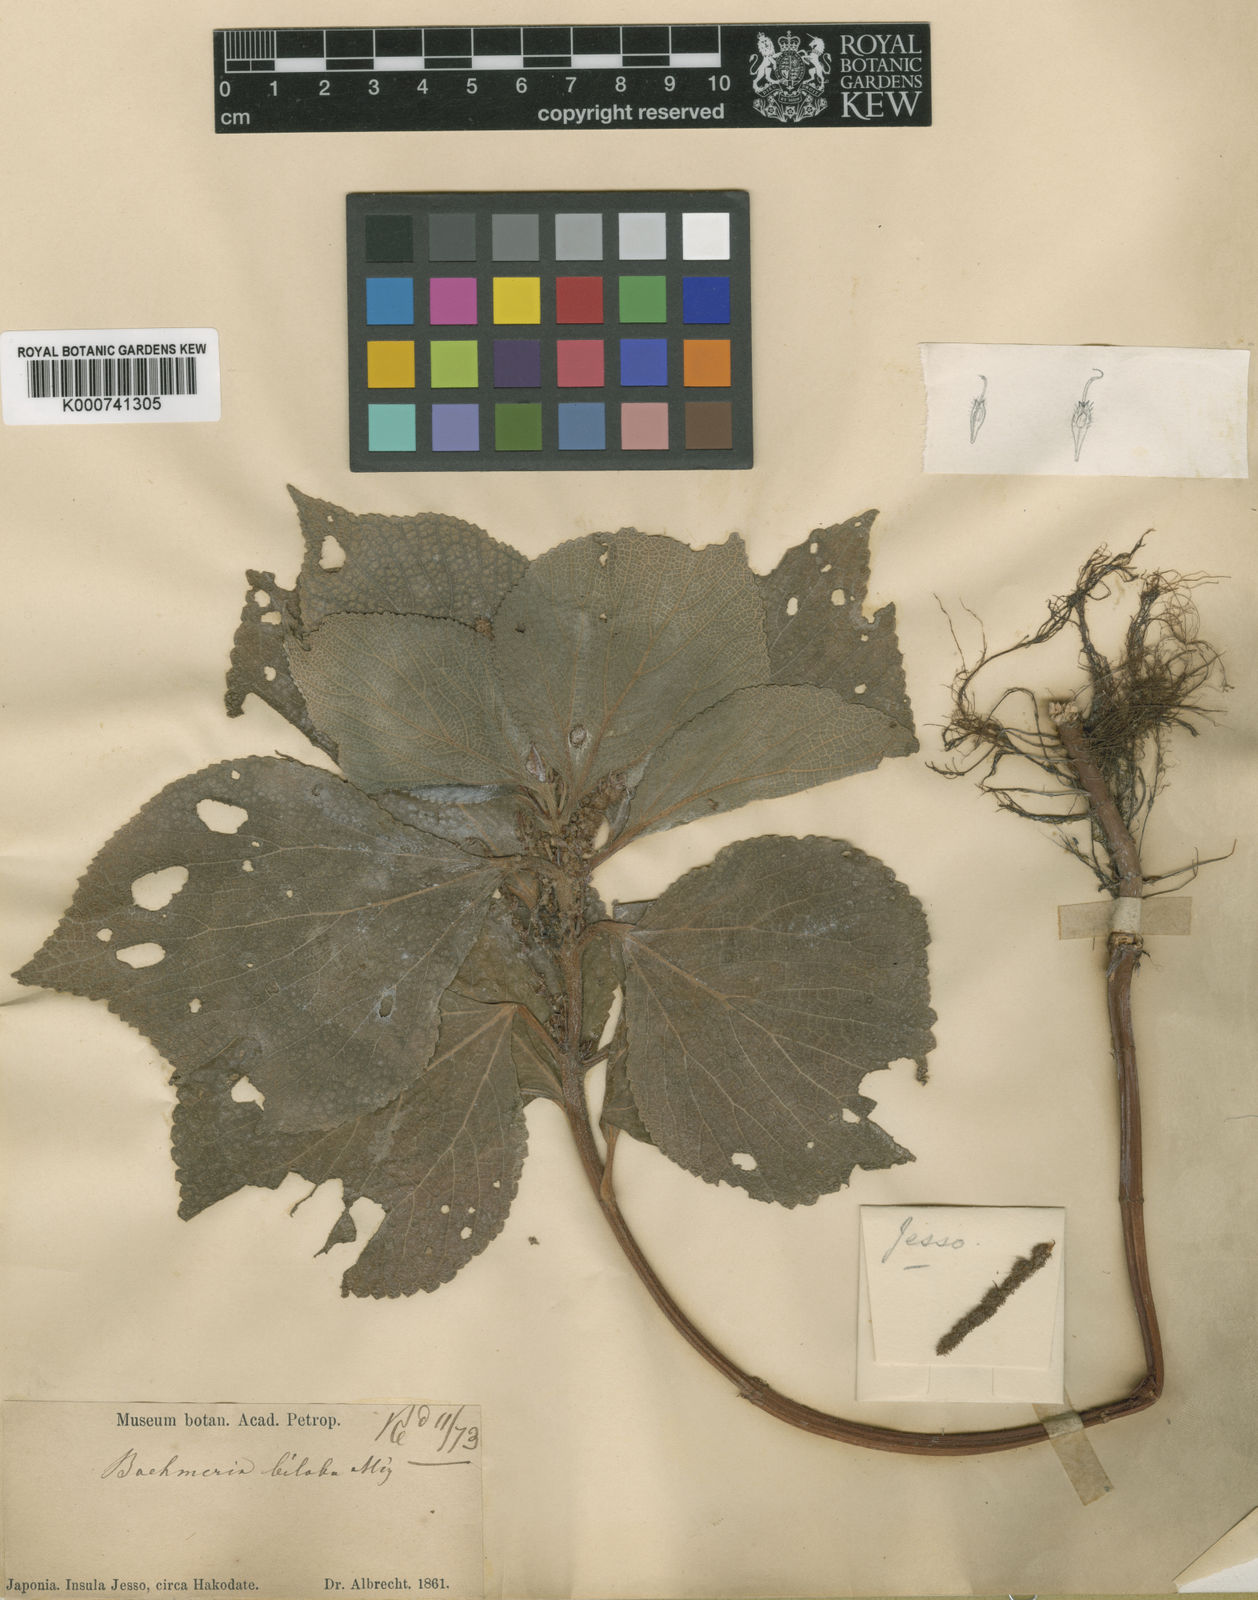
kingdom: Plantae
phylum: Tracheophyta
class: Magnoliopsida
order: Rosales
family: Urticaceae
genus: Boehmeria
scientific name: Boehmeria
